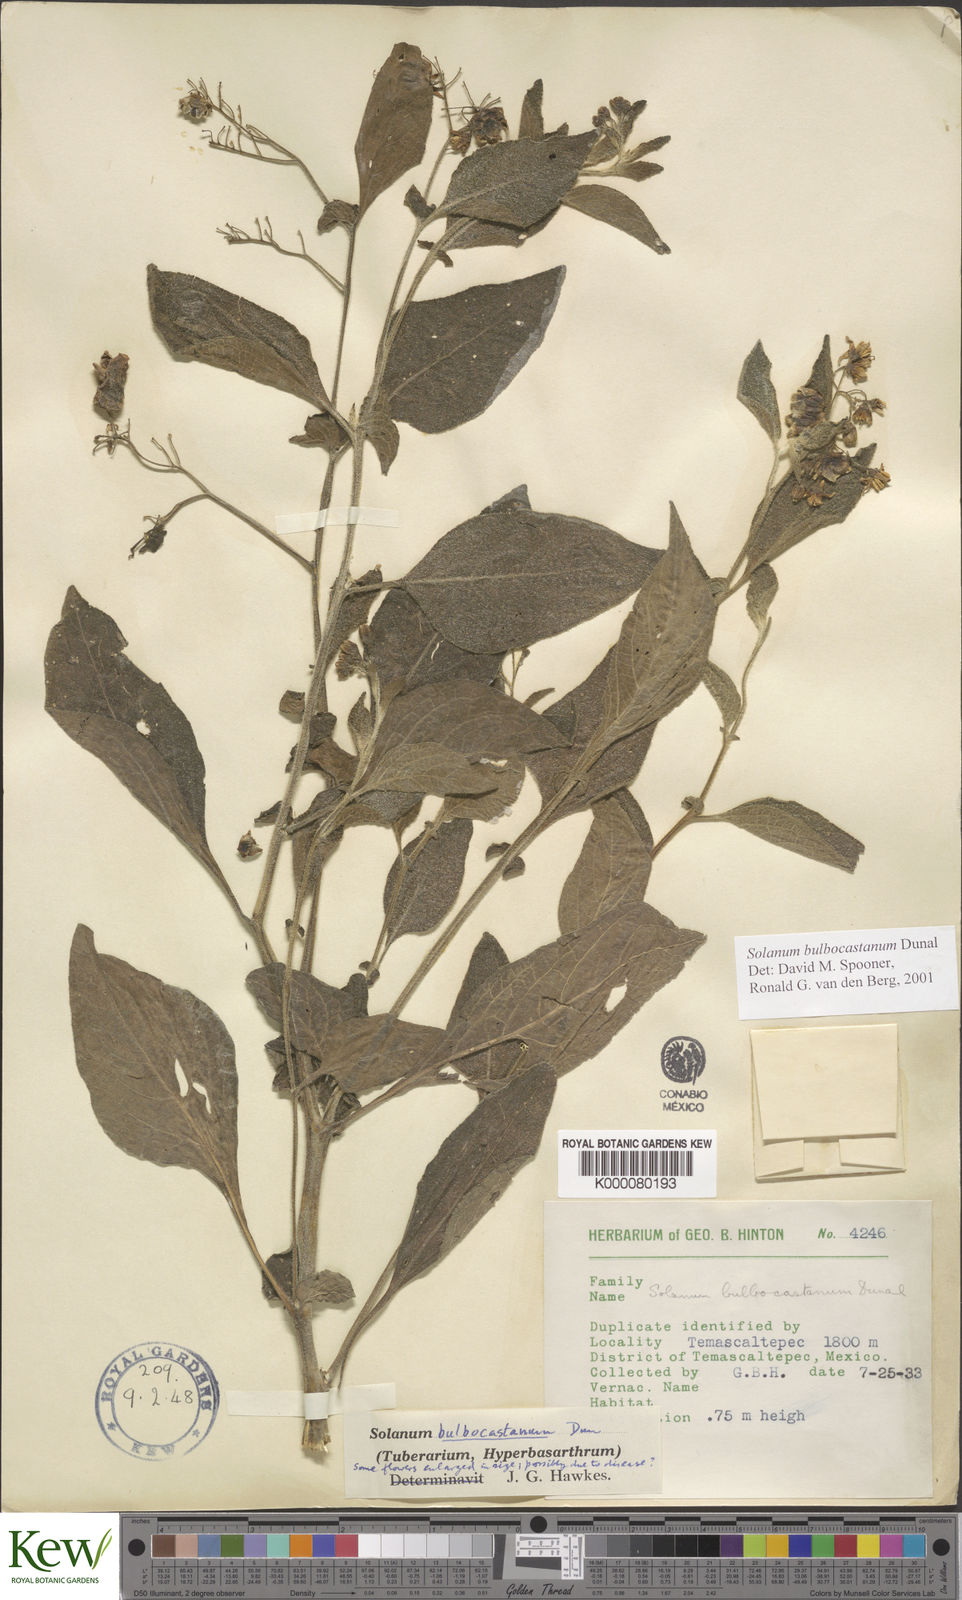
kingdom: Plantae
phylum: Tracheophyta
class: Magnoliopsida
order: Solanales
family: Solanaceae
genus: Solanum
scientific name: Solanum bulbocastanum
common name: Ornamental nightshade
